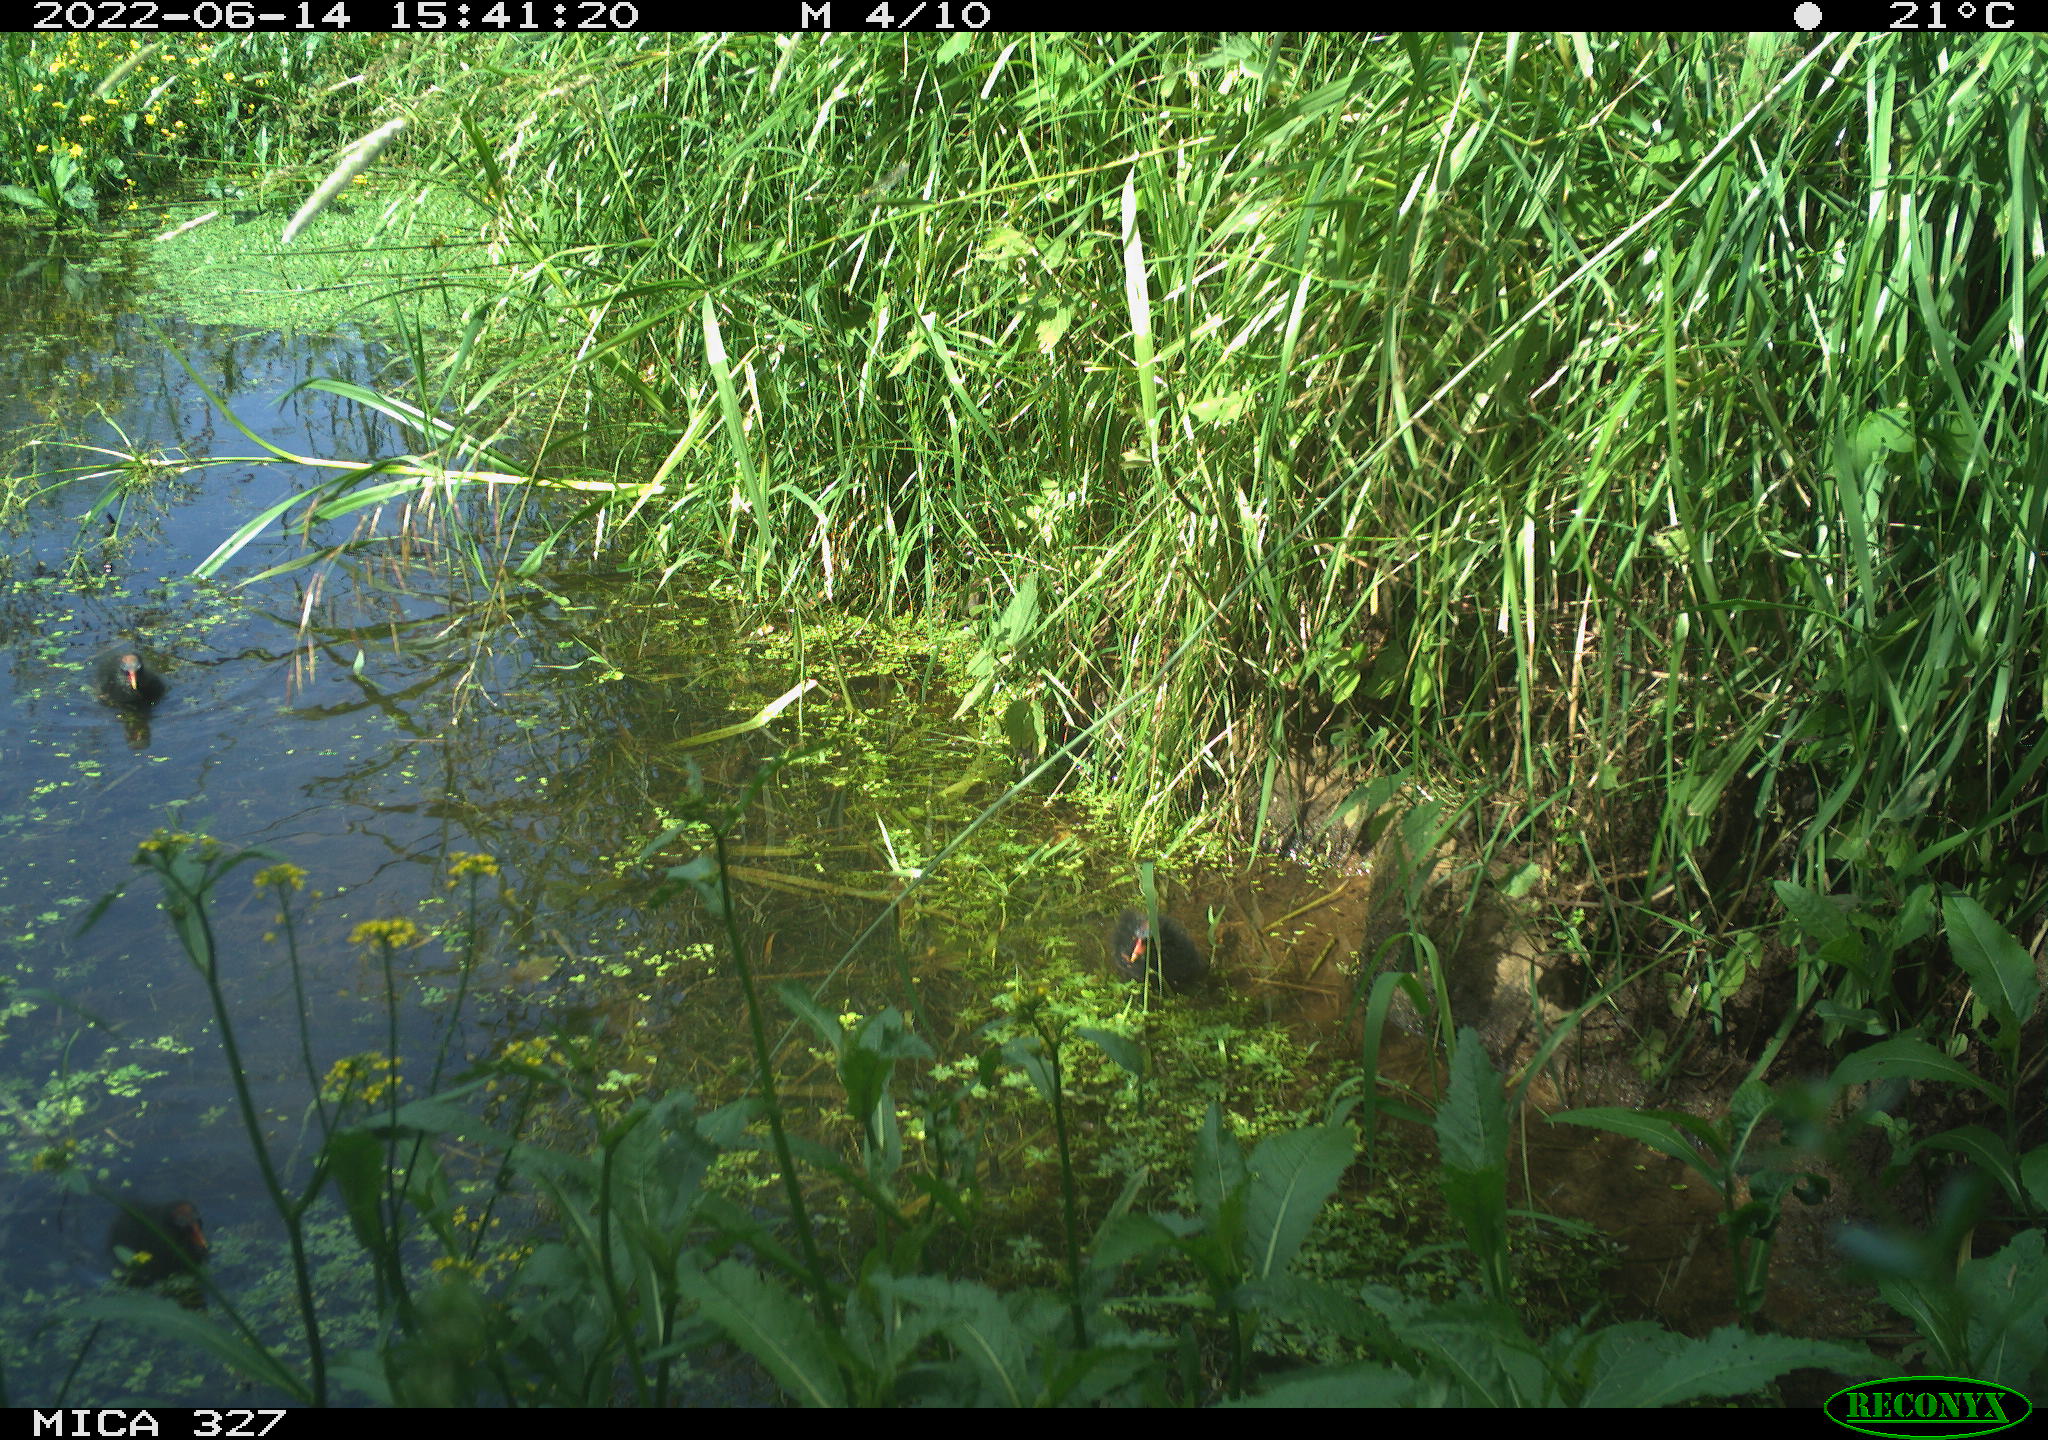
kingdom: Animalia
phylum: Chordata
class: Aves
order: Gruiformes
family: Rallidae
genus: Gallinula
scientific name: Gallinula chloropus
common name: Common moorhen
